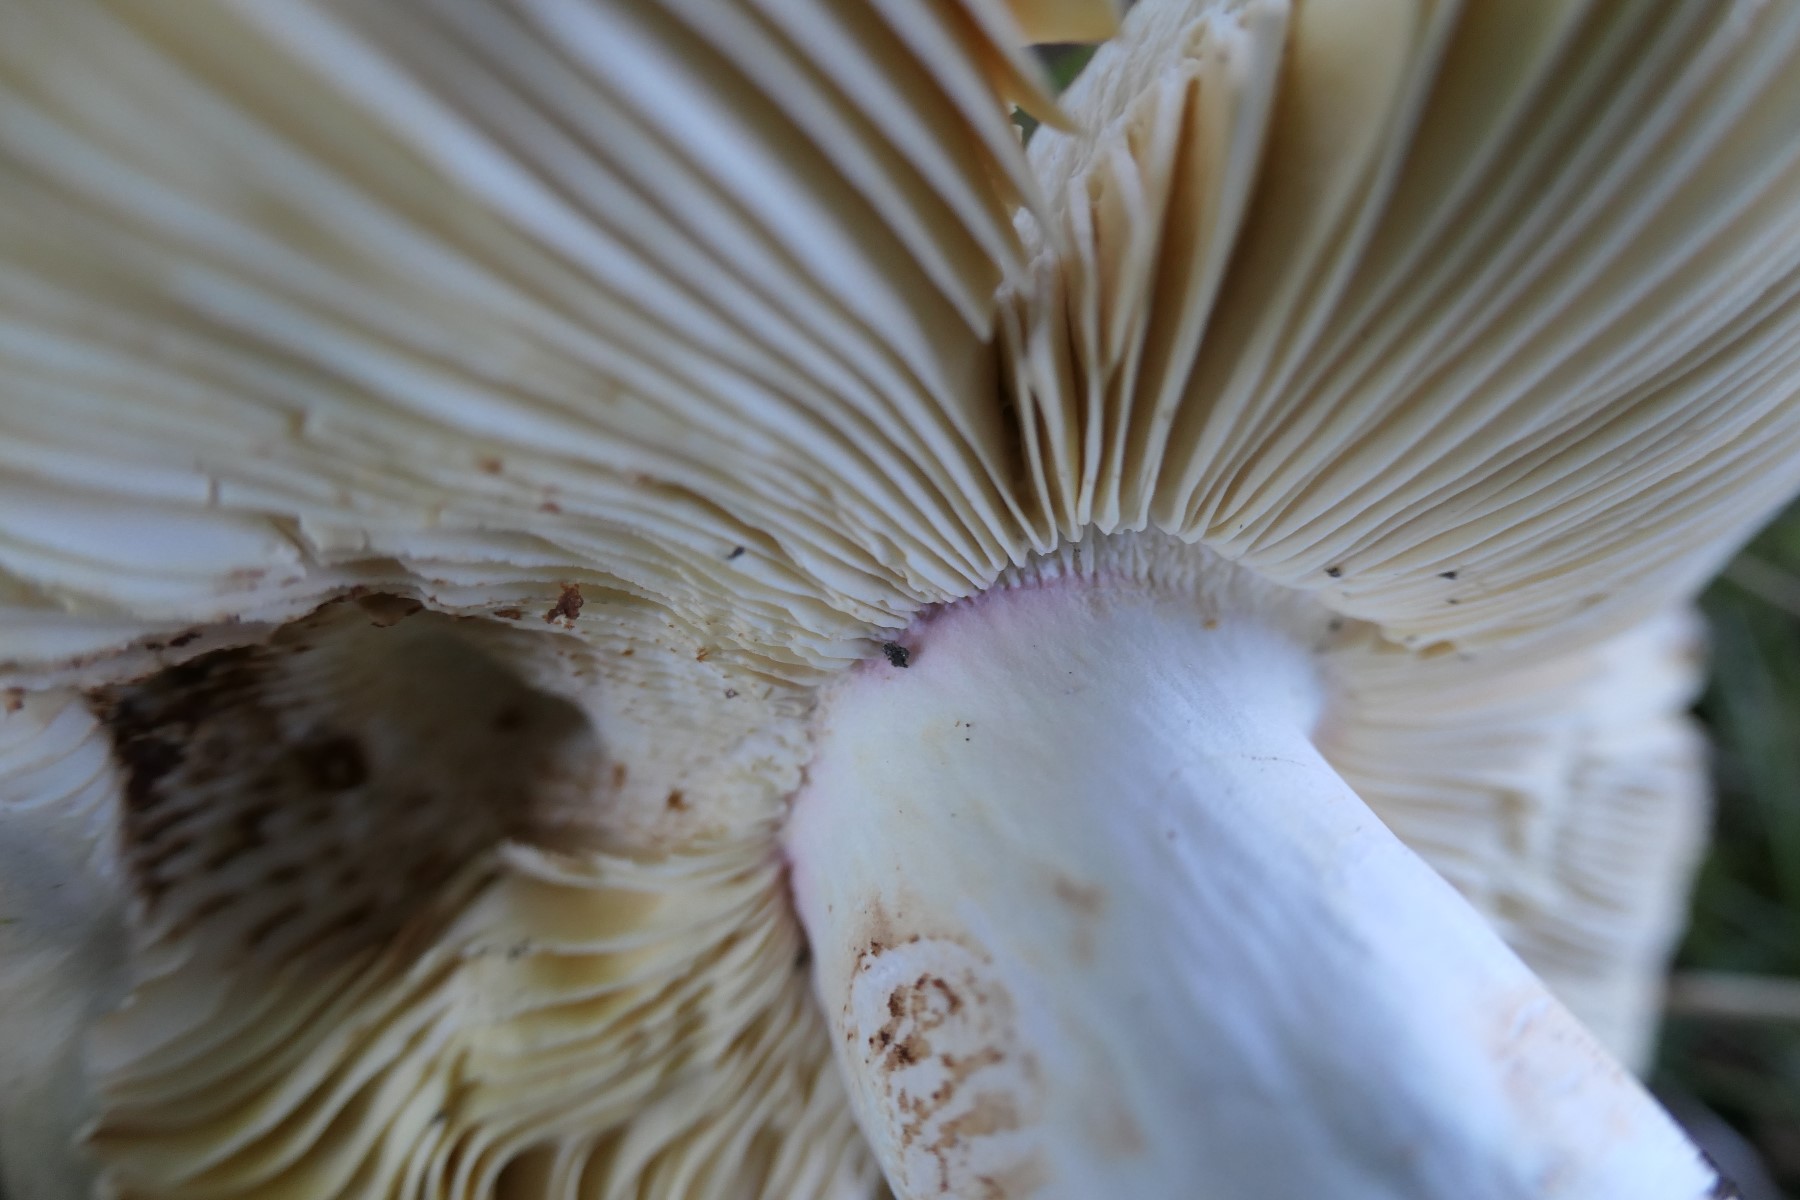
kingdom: Fungi
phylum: Basidiomycota
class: Agaricomycetes
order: Russulales
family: Russulaceae
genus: Russula
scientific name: Russula olivacea
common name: stor skørhat
